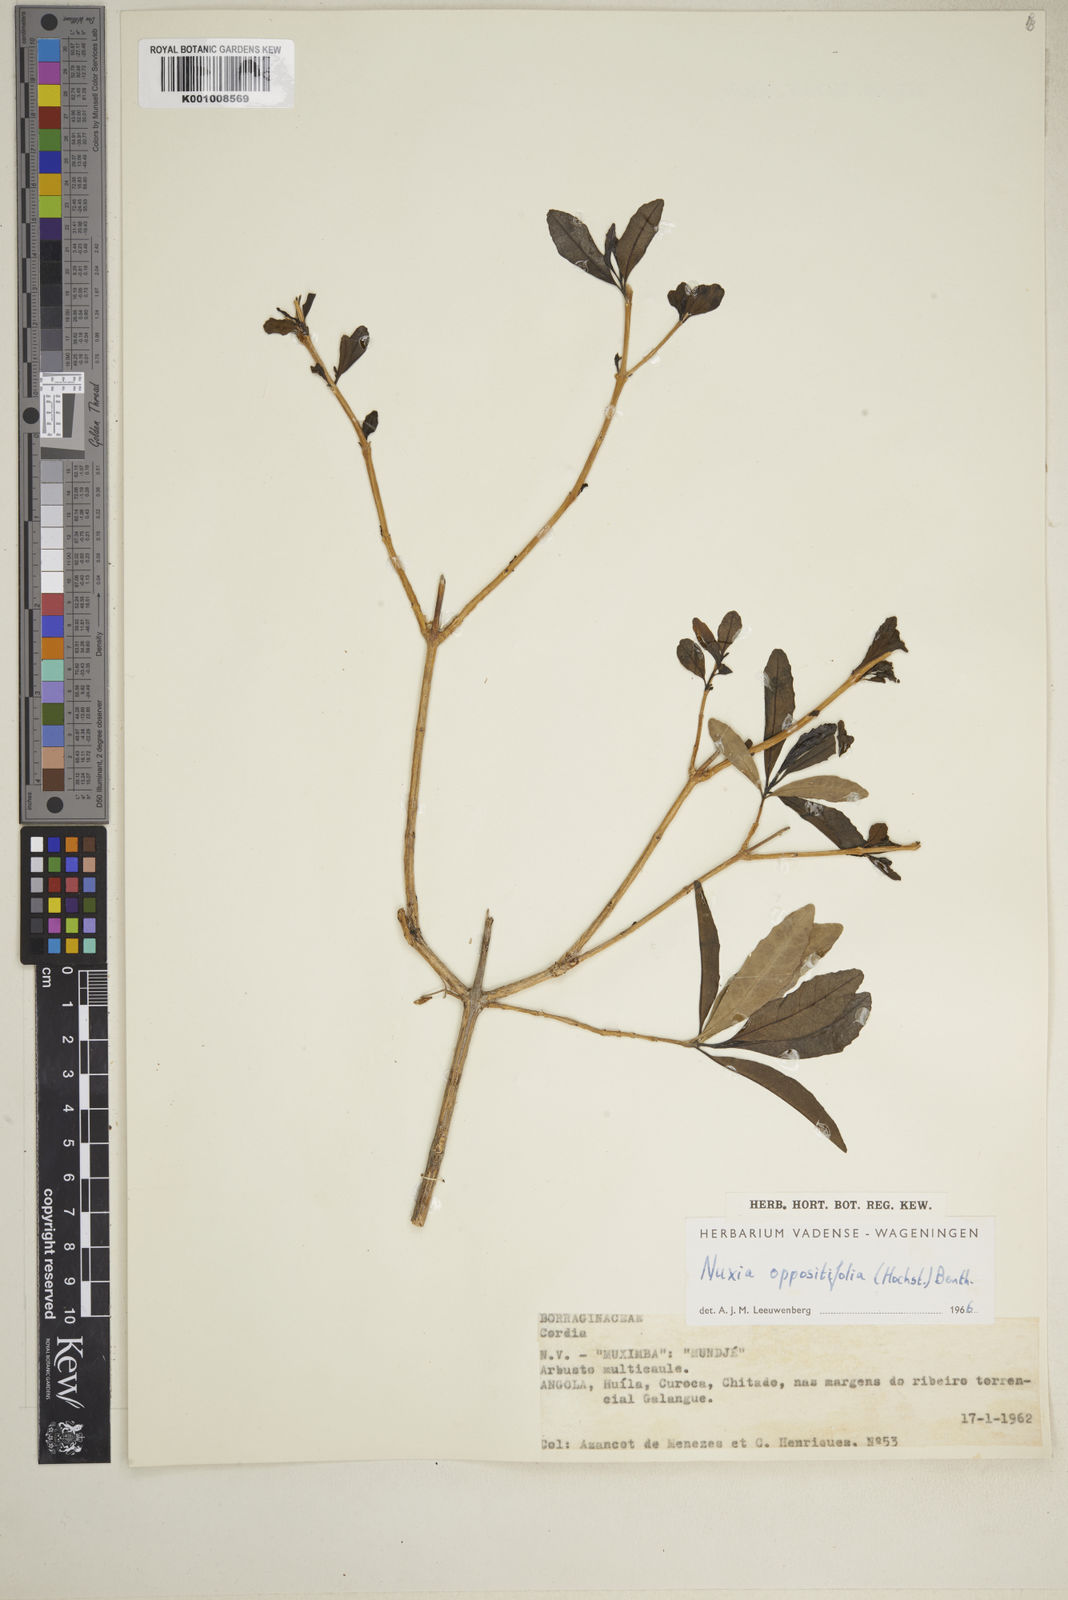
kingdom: Plantae
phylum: Tracheophyta
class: Magnoliopsida
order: Lamiales
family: Stilbaceae
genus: Nuxia
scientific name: Nuxia oppositifolia
